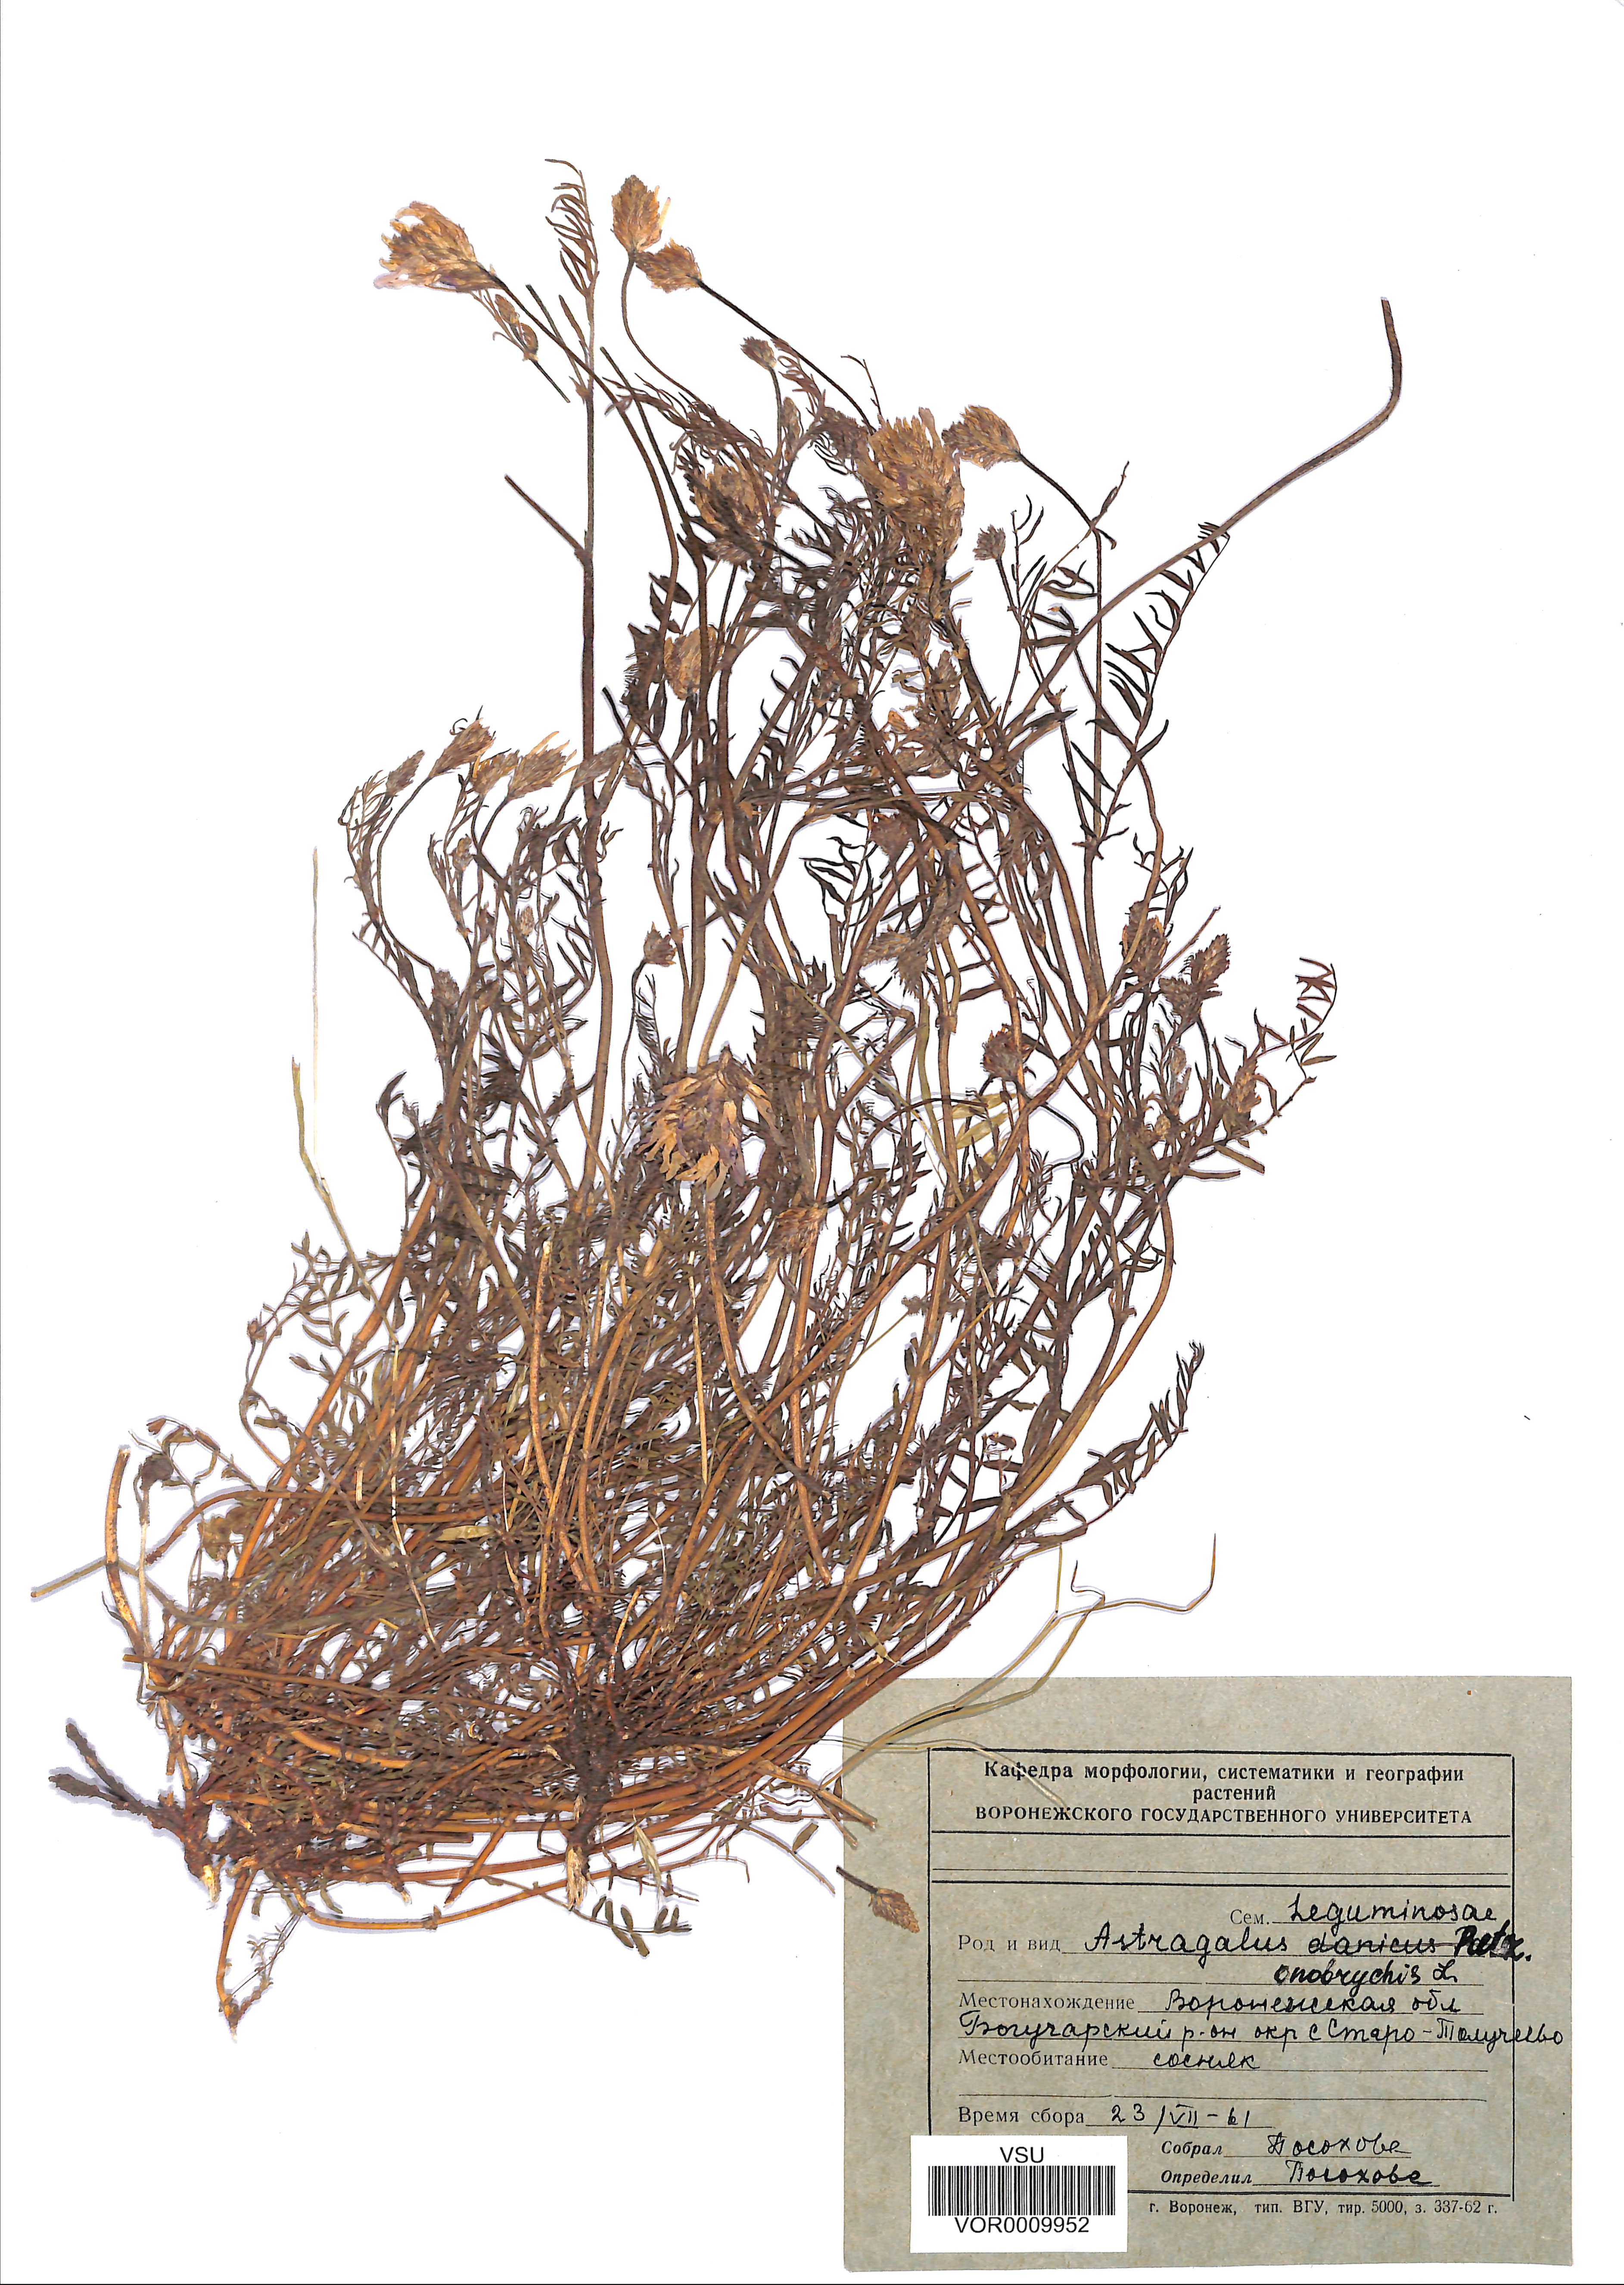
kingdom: Plantae
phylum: Tracheophyta
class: Magnoliopsida
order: Fabales
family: Fabaceae
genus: Astragalus
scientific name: Astragalus onobrychis
